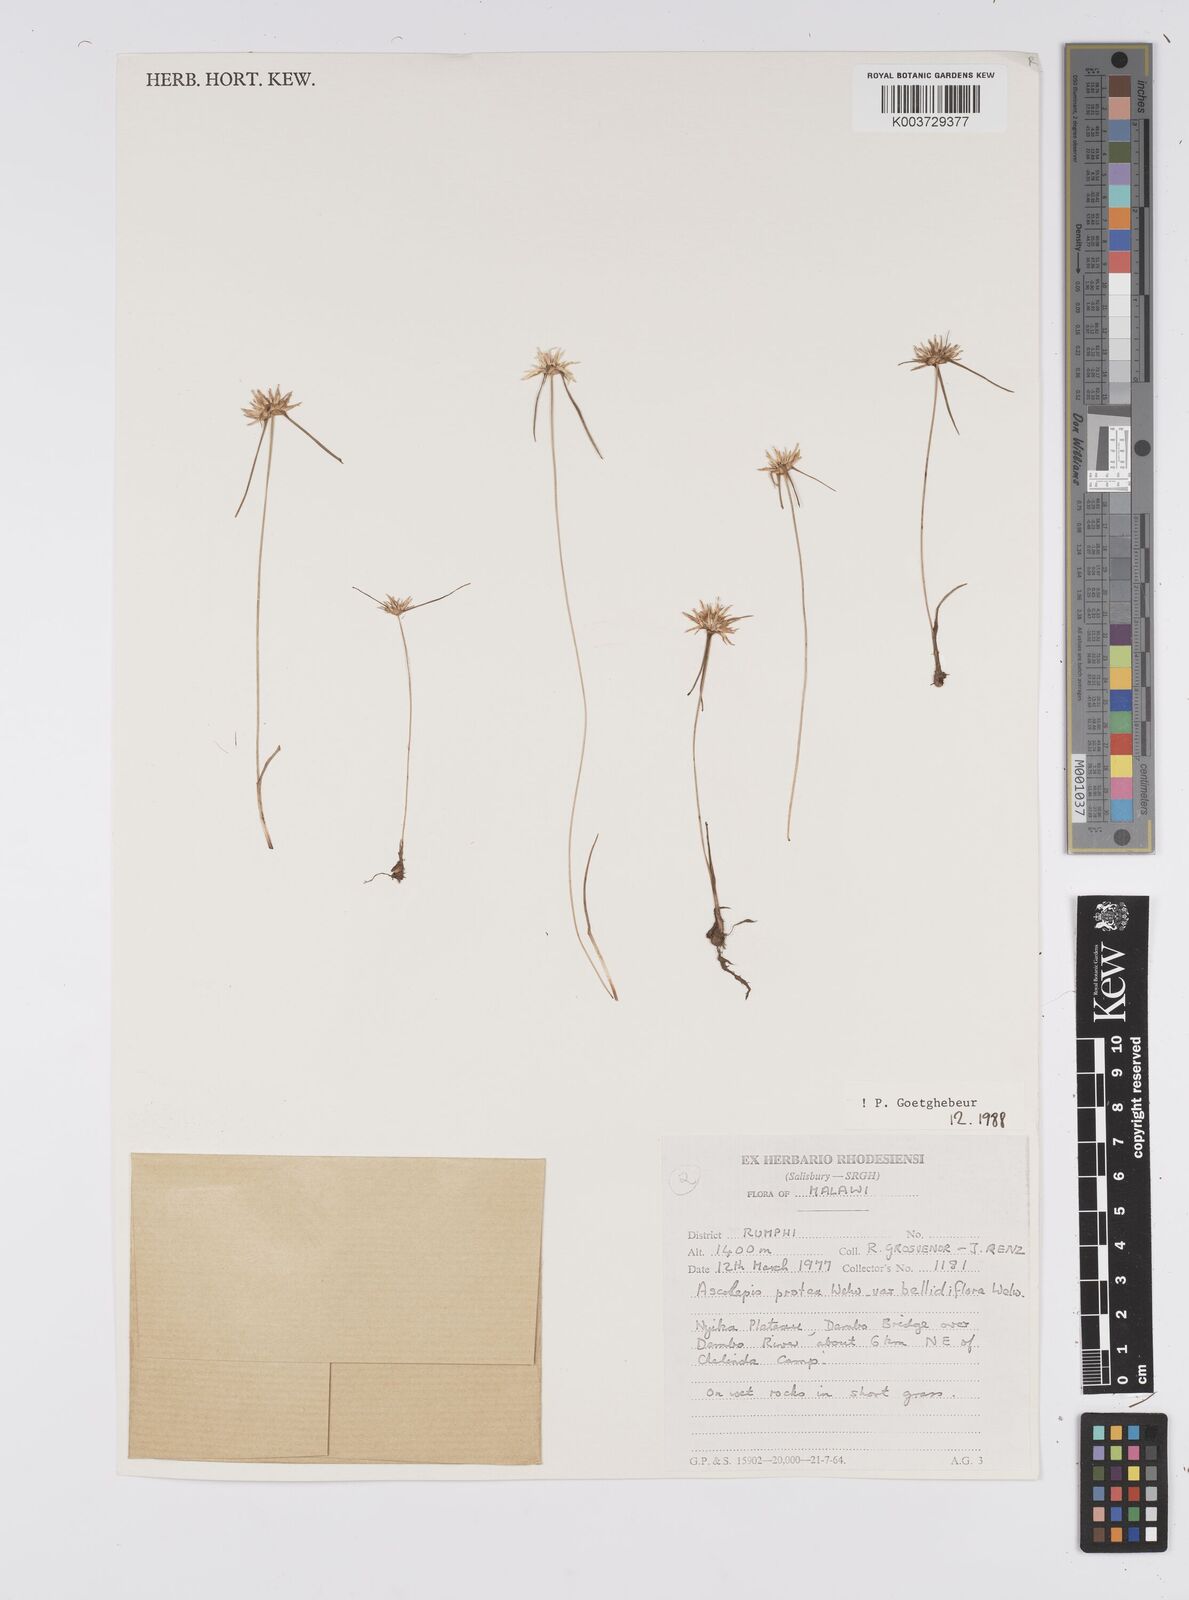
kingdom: Plantae
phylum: Tracheophyta
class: Liliopsida
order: Poales
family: Cyperaceae
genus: Cyperus
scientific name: Cyperus proteus
